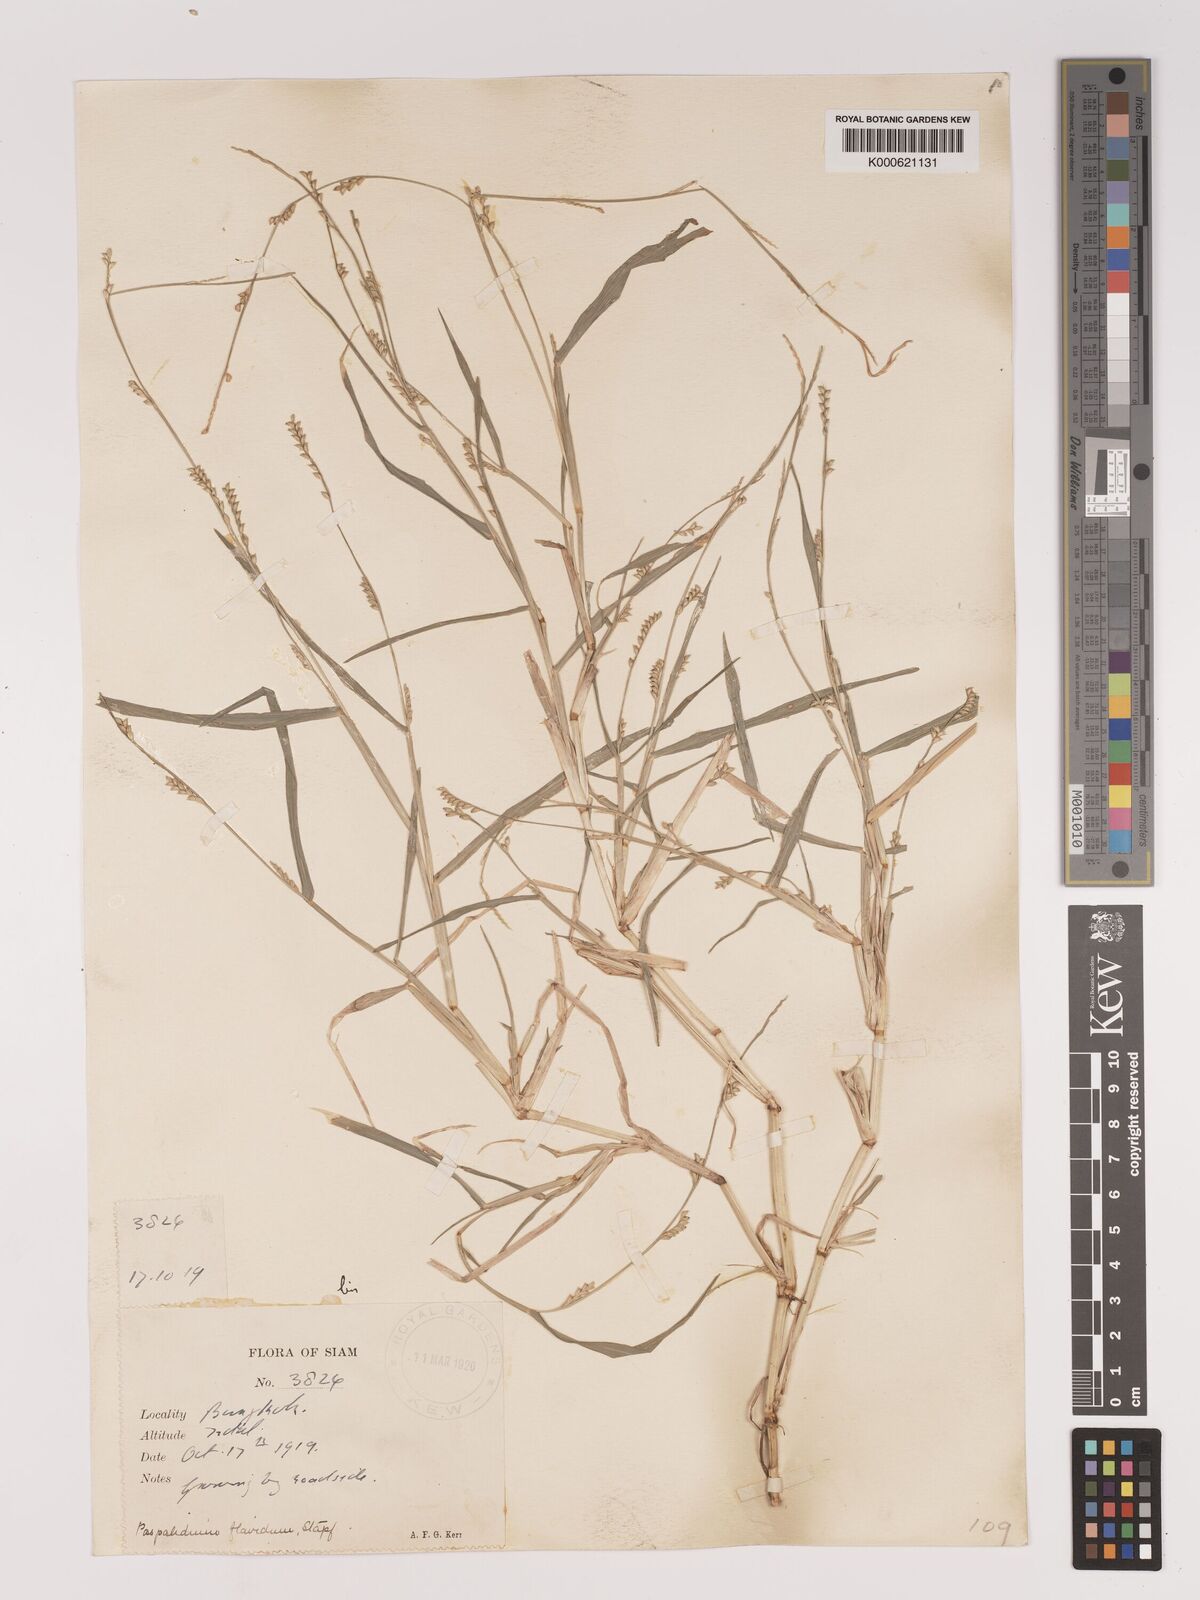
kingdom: Plantae
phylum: Tracheophyta
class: Liliopsida
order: Poales
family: Poaceae
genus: Setaria
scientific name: Setaria flavida
